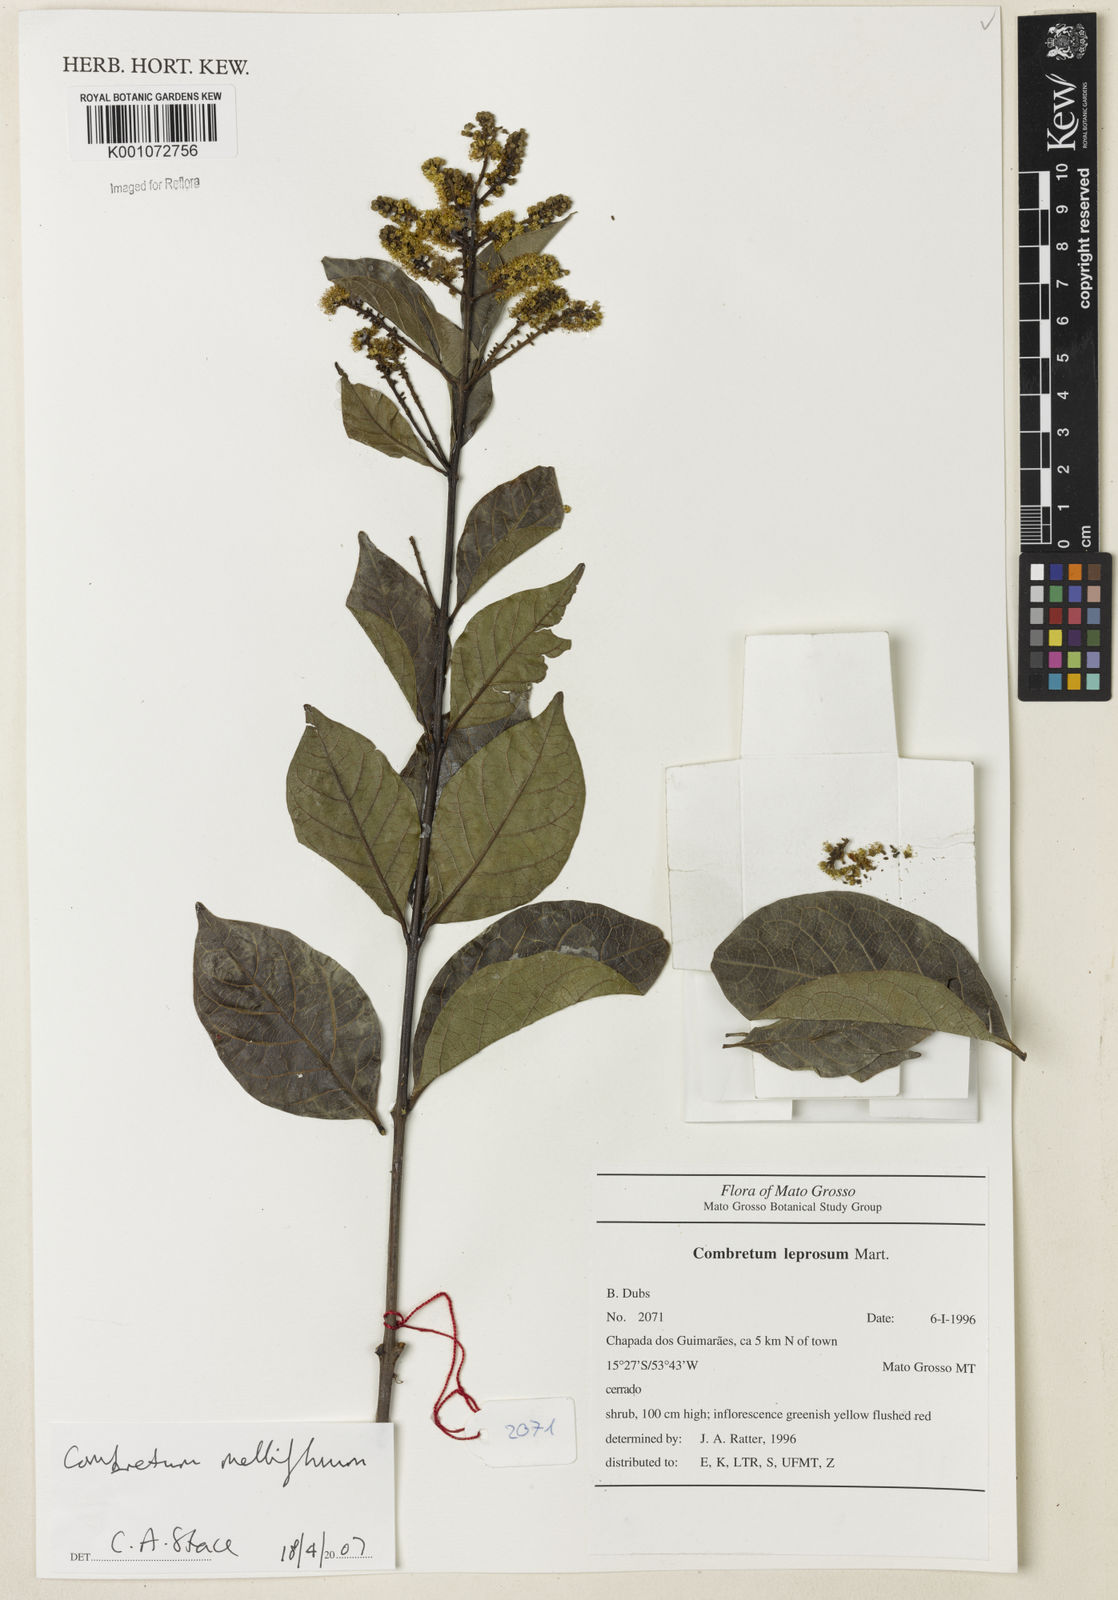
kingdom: Plantae
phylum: Tracheophyta
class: Magnoliopsida
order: Myrtales
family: Combretaceae
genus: Combretum
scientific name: Combretum mellifluum
